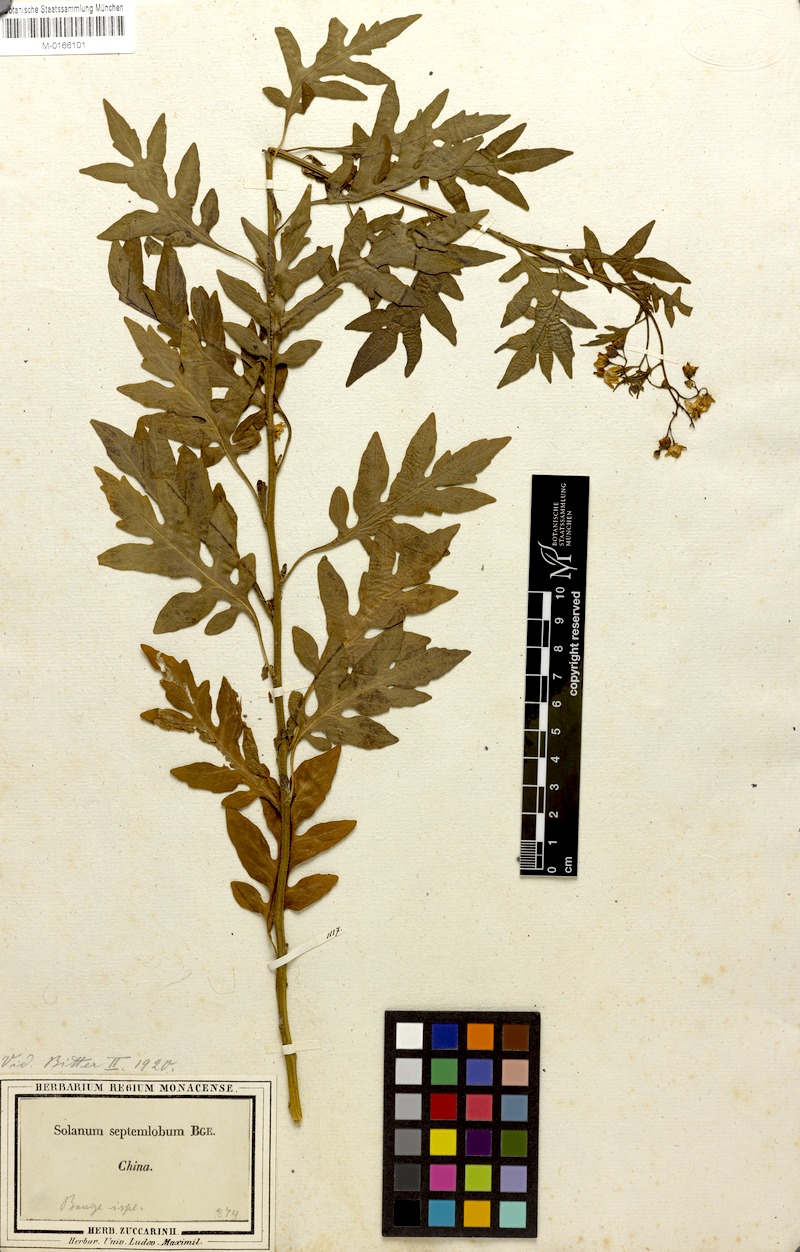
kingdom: Plantae
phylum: Tracheophyta
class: Magnoliopsida
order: Solanales
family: Solanaceae
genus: Solanum
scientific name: Solanum septemlobum
